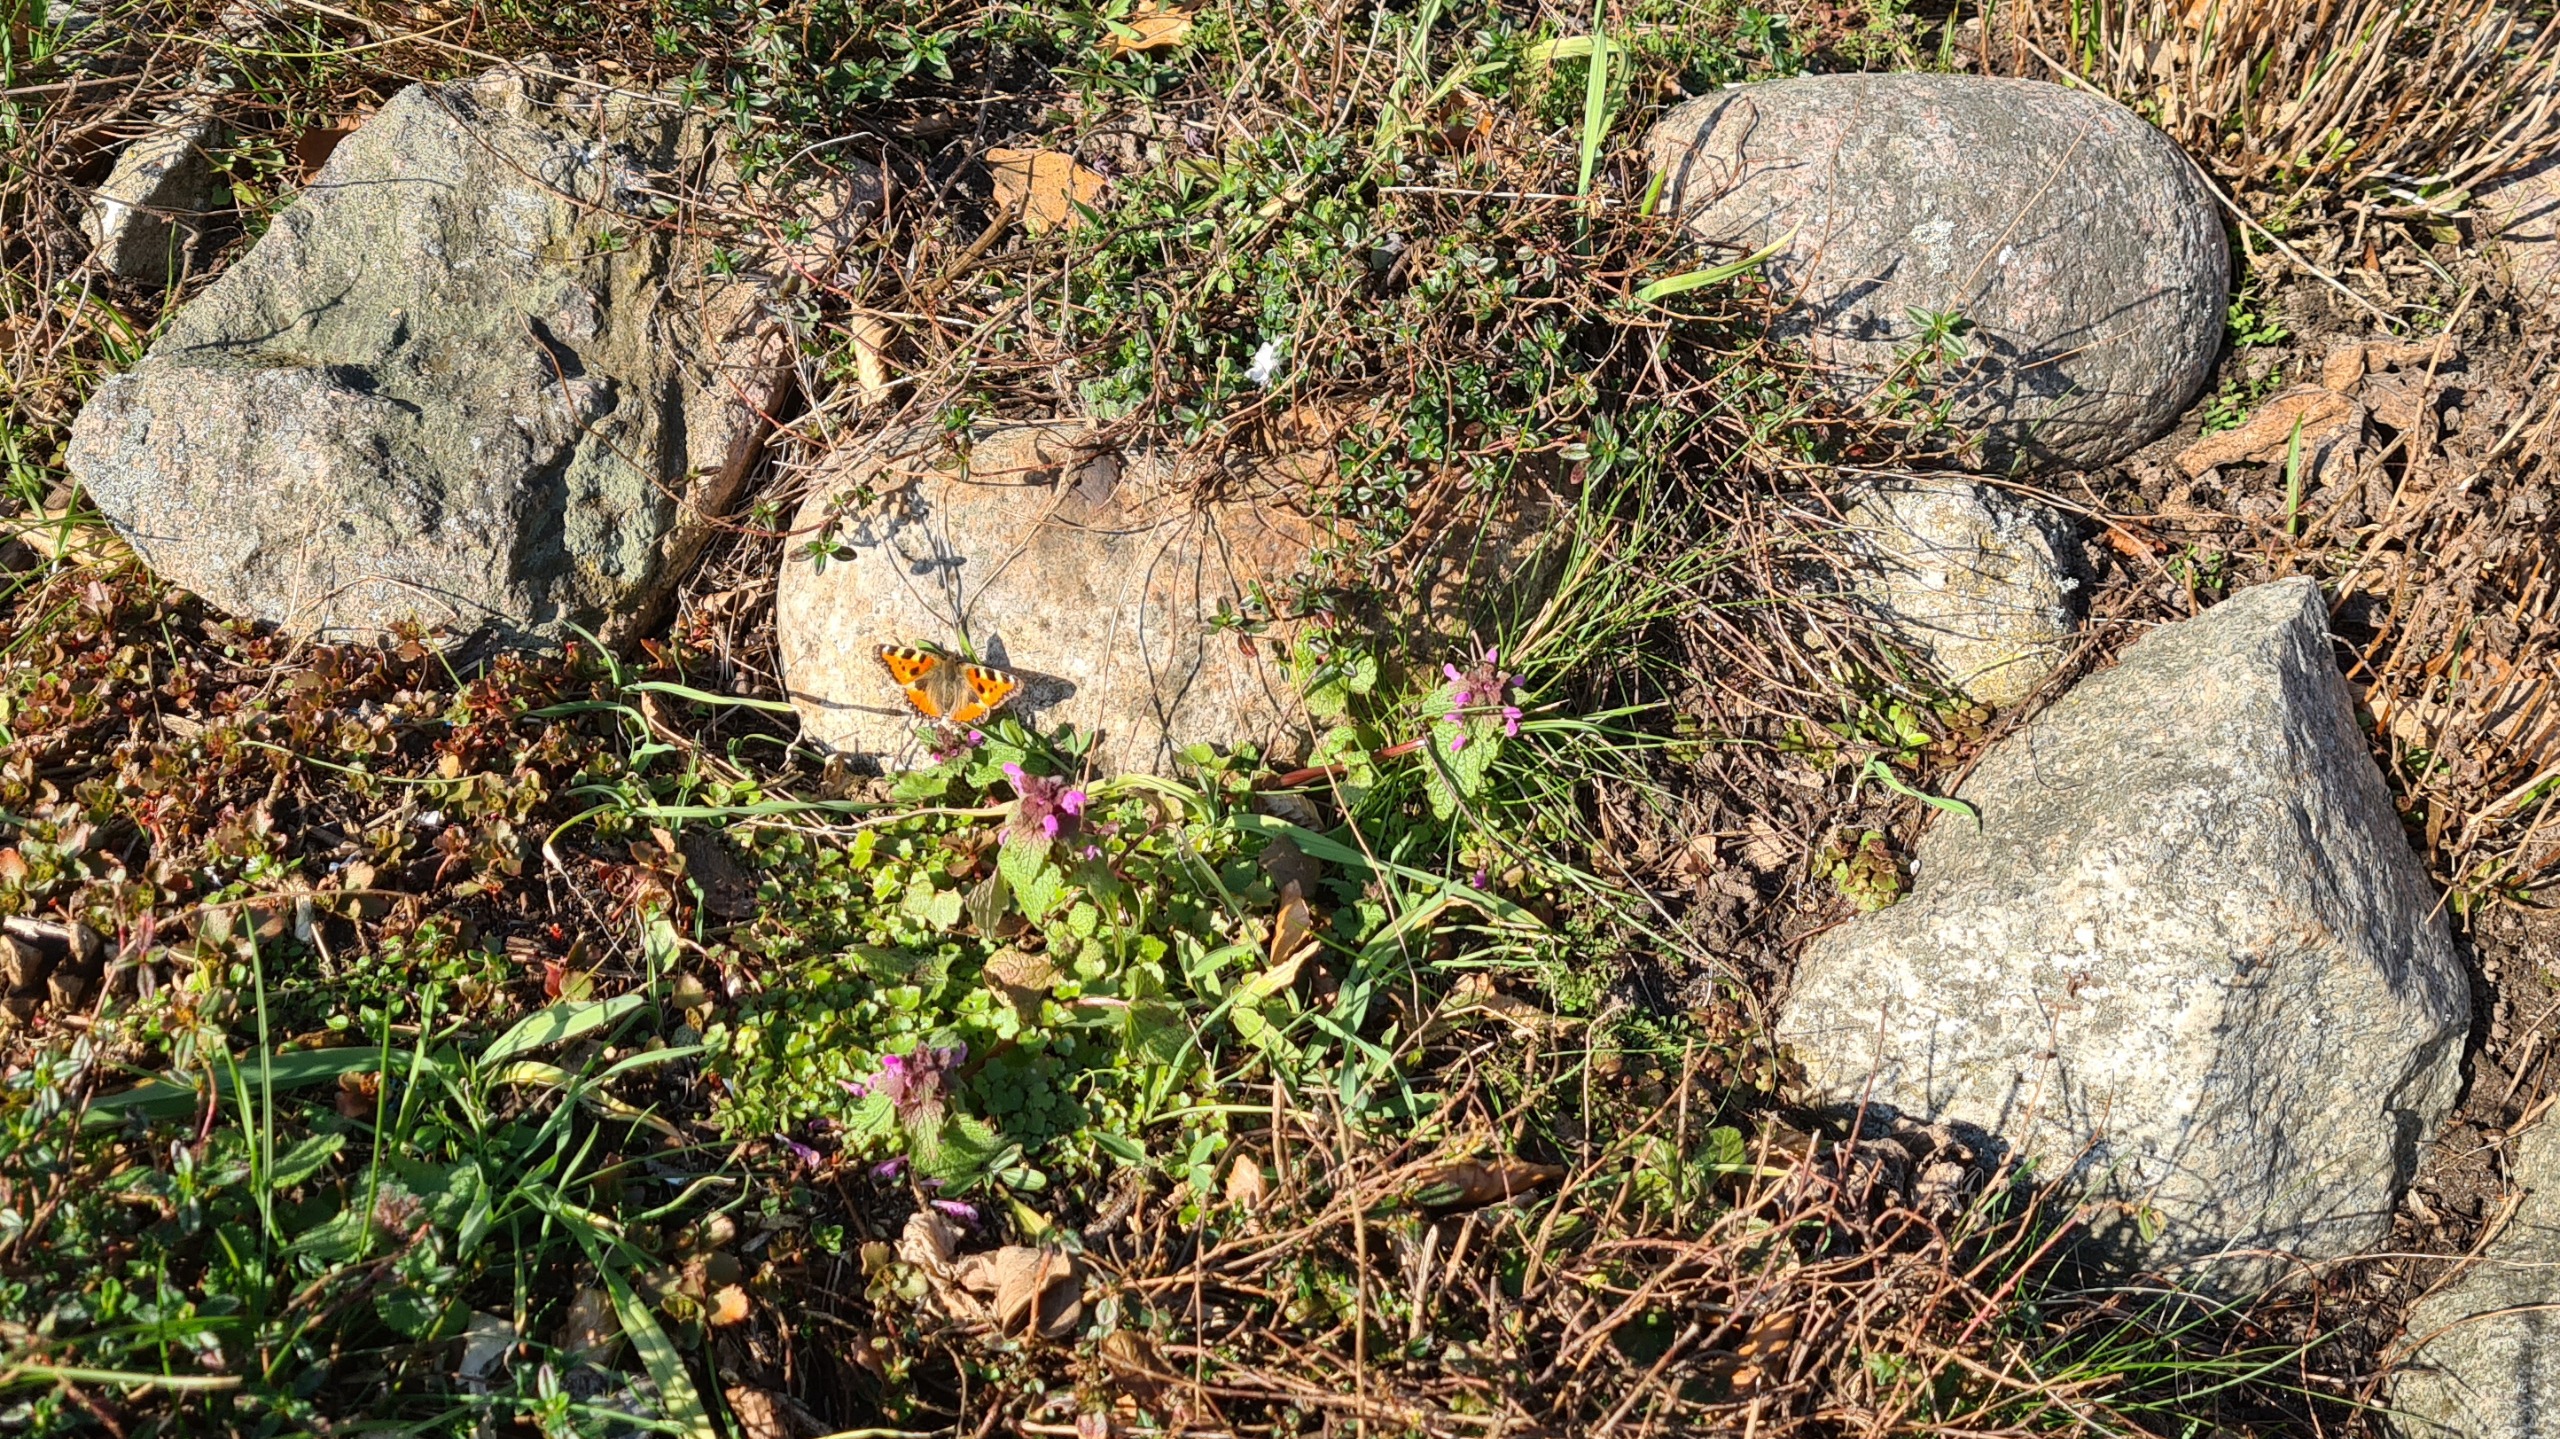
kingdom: Animalia
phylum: Arthropoda
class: Insecta
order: Lepidoptera
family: Nymphalidae
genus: Aglais
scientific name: Aglais urticae
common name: Nældens takvinge
